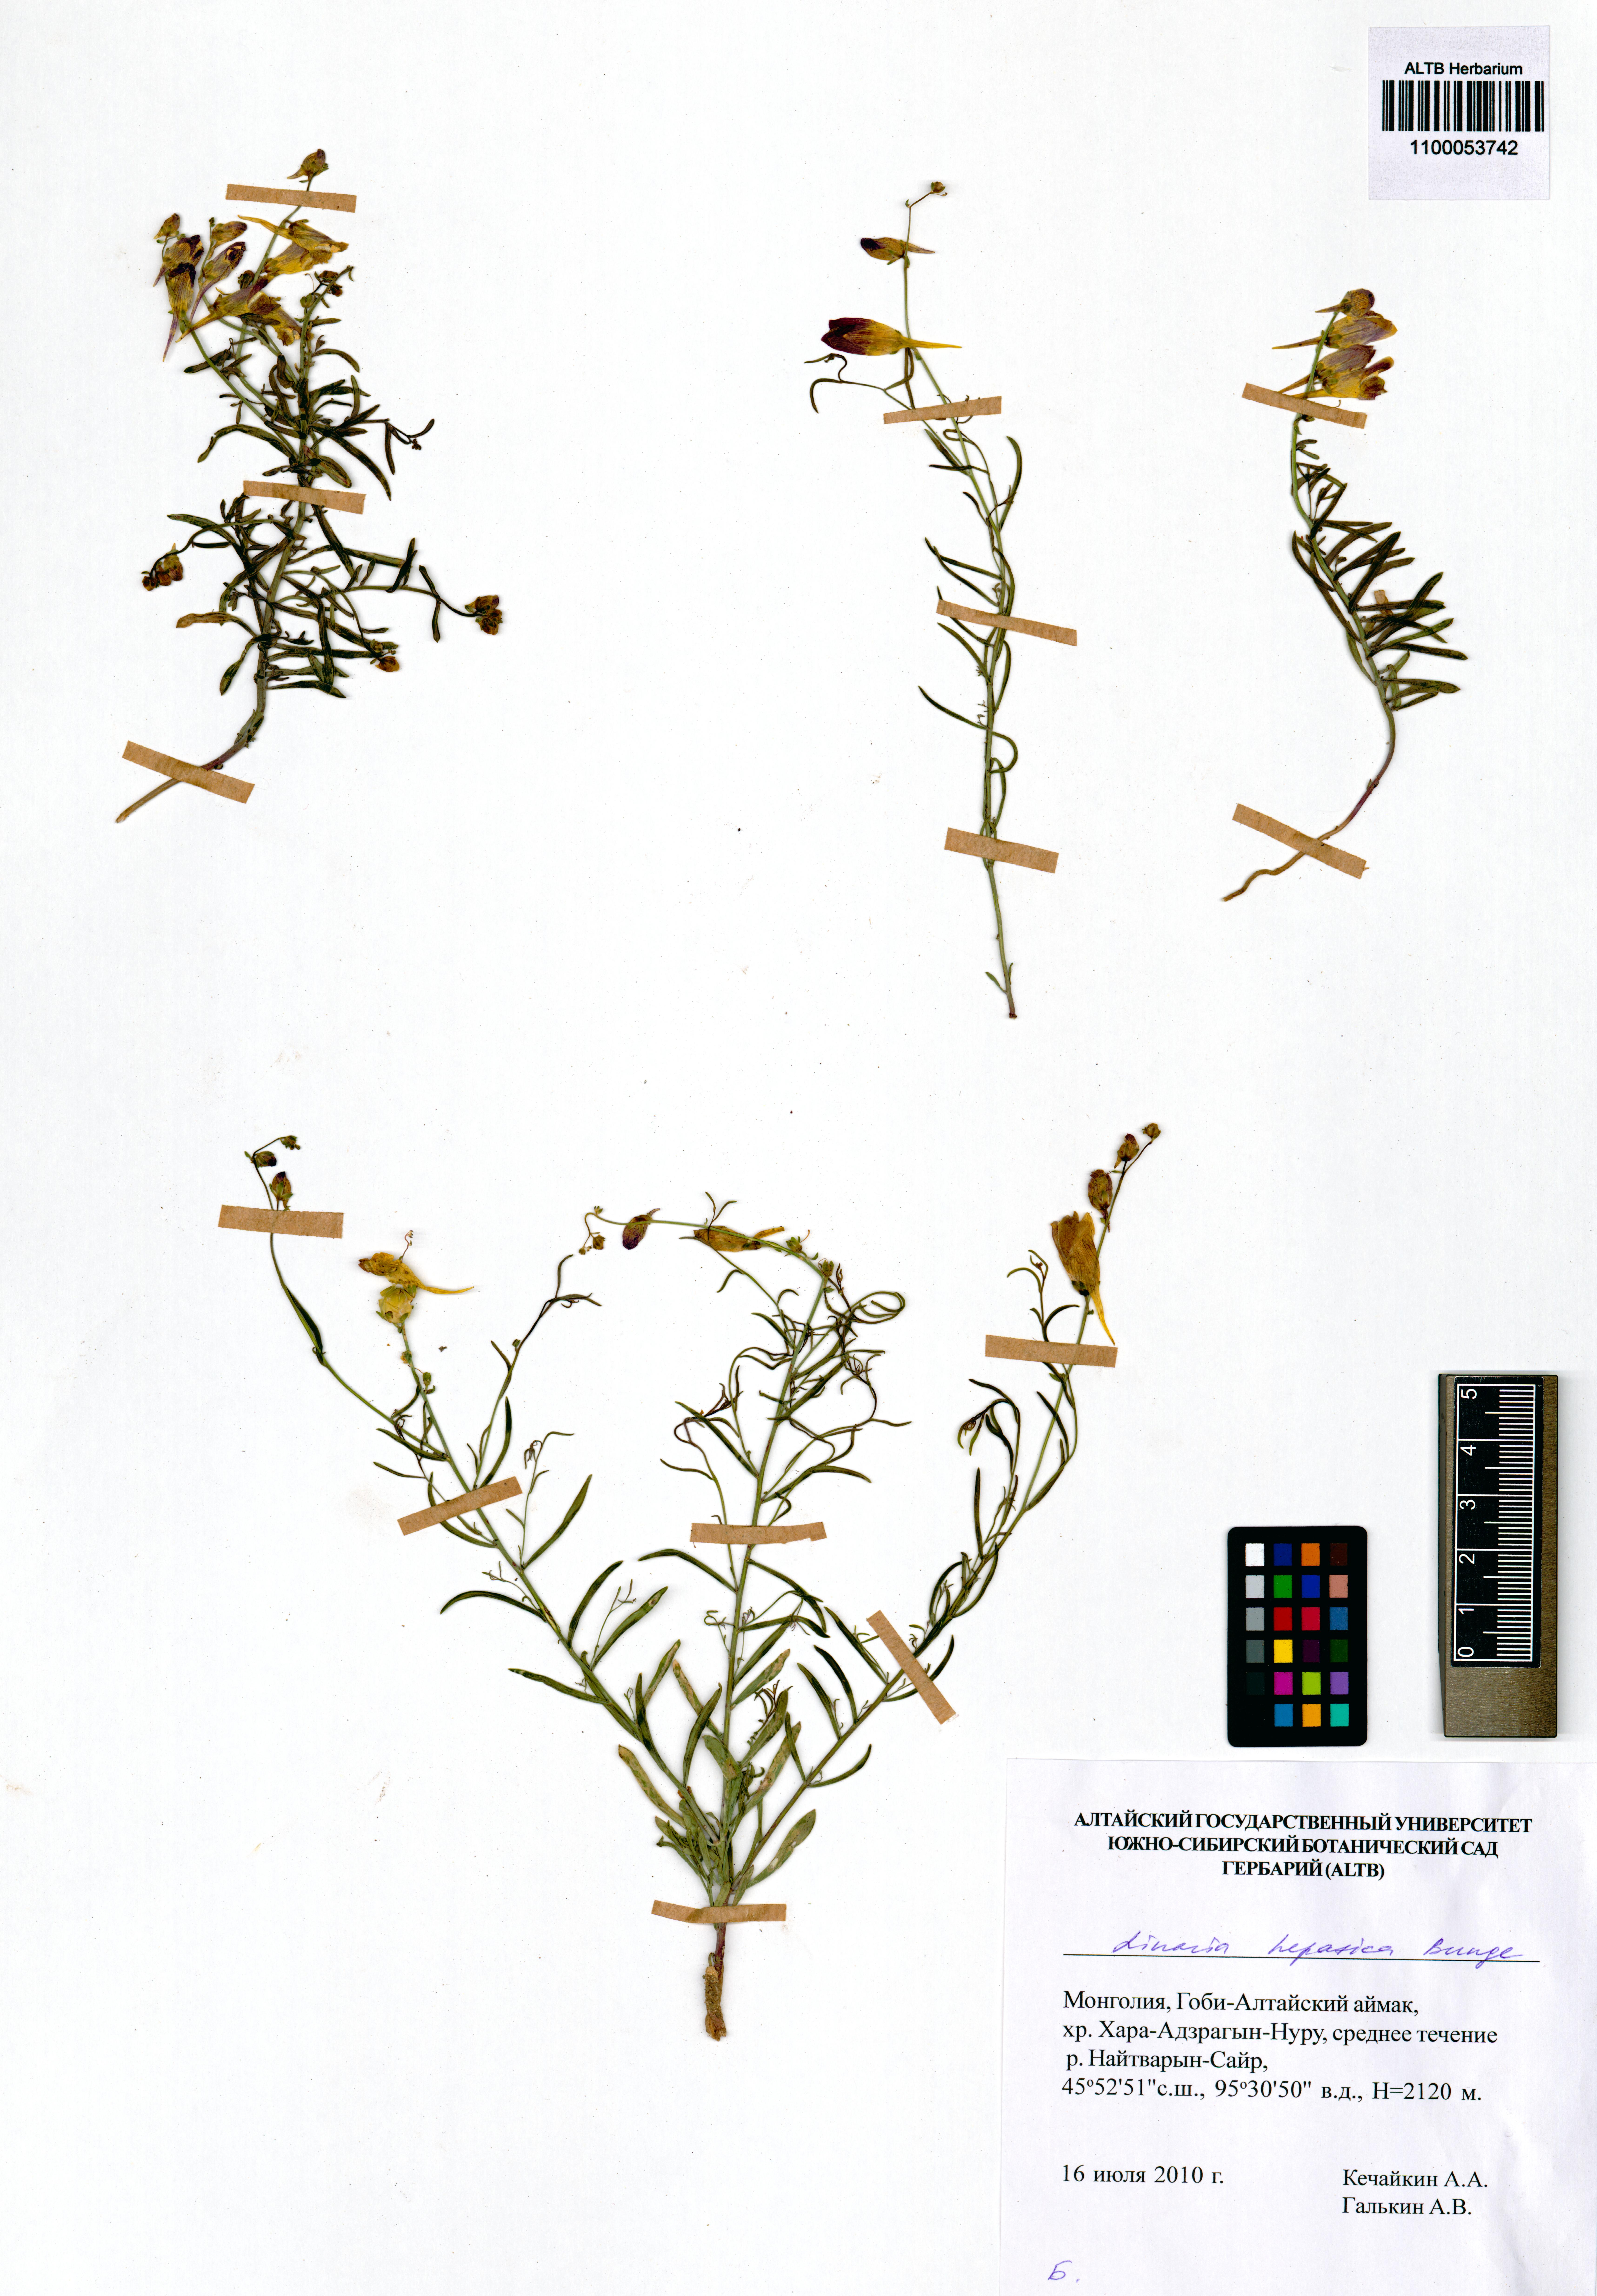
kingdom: Plantae
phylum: Tracheophyta
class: Magnoliopsida
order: Lamiales
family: Plantaginaceae
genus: Linaria
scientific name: Linaria hepatica
